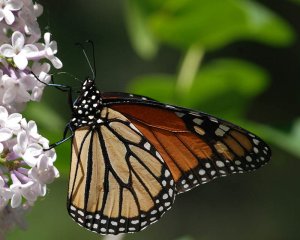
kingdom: Animalia
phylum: Arthropoda
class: Insecta
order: Lepidoptera
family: Nymphalidae
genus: Danaus
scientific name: Danaus plexippus
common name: Monarch
